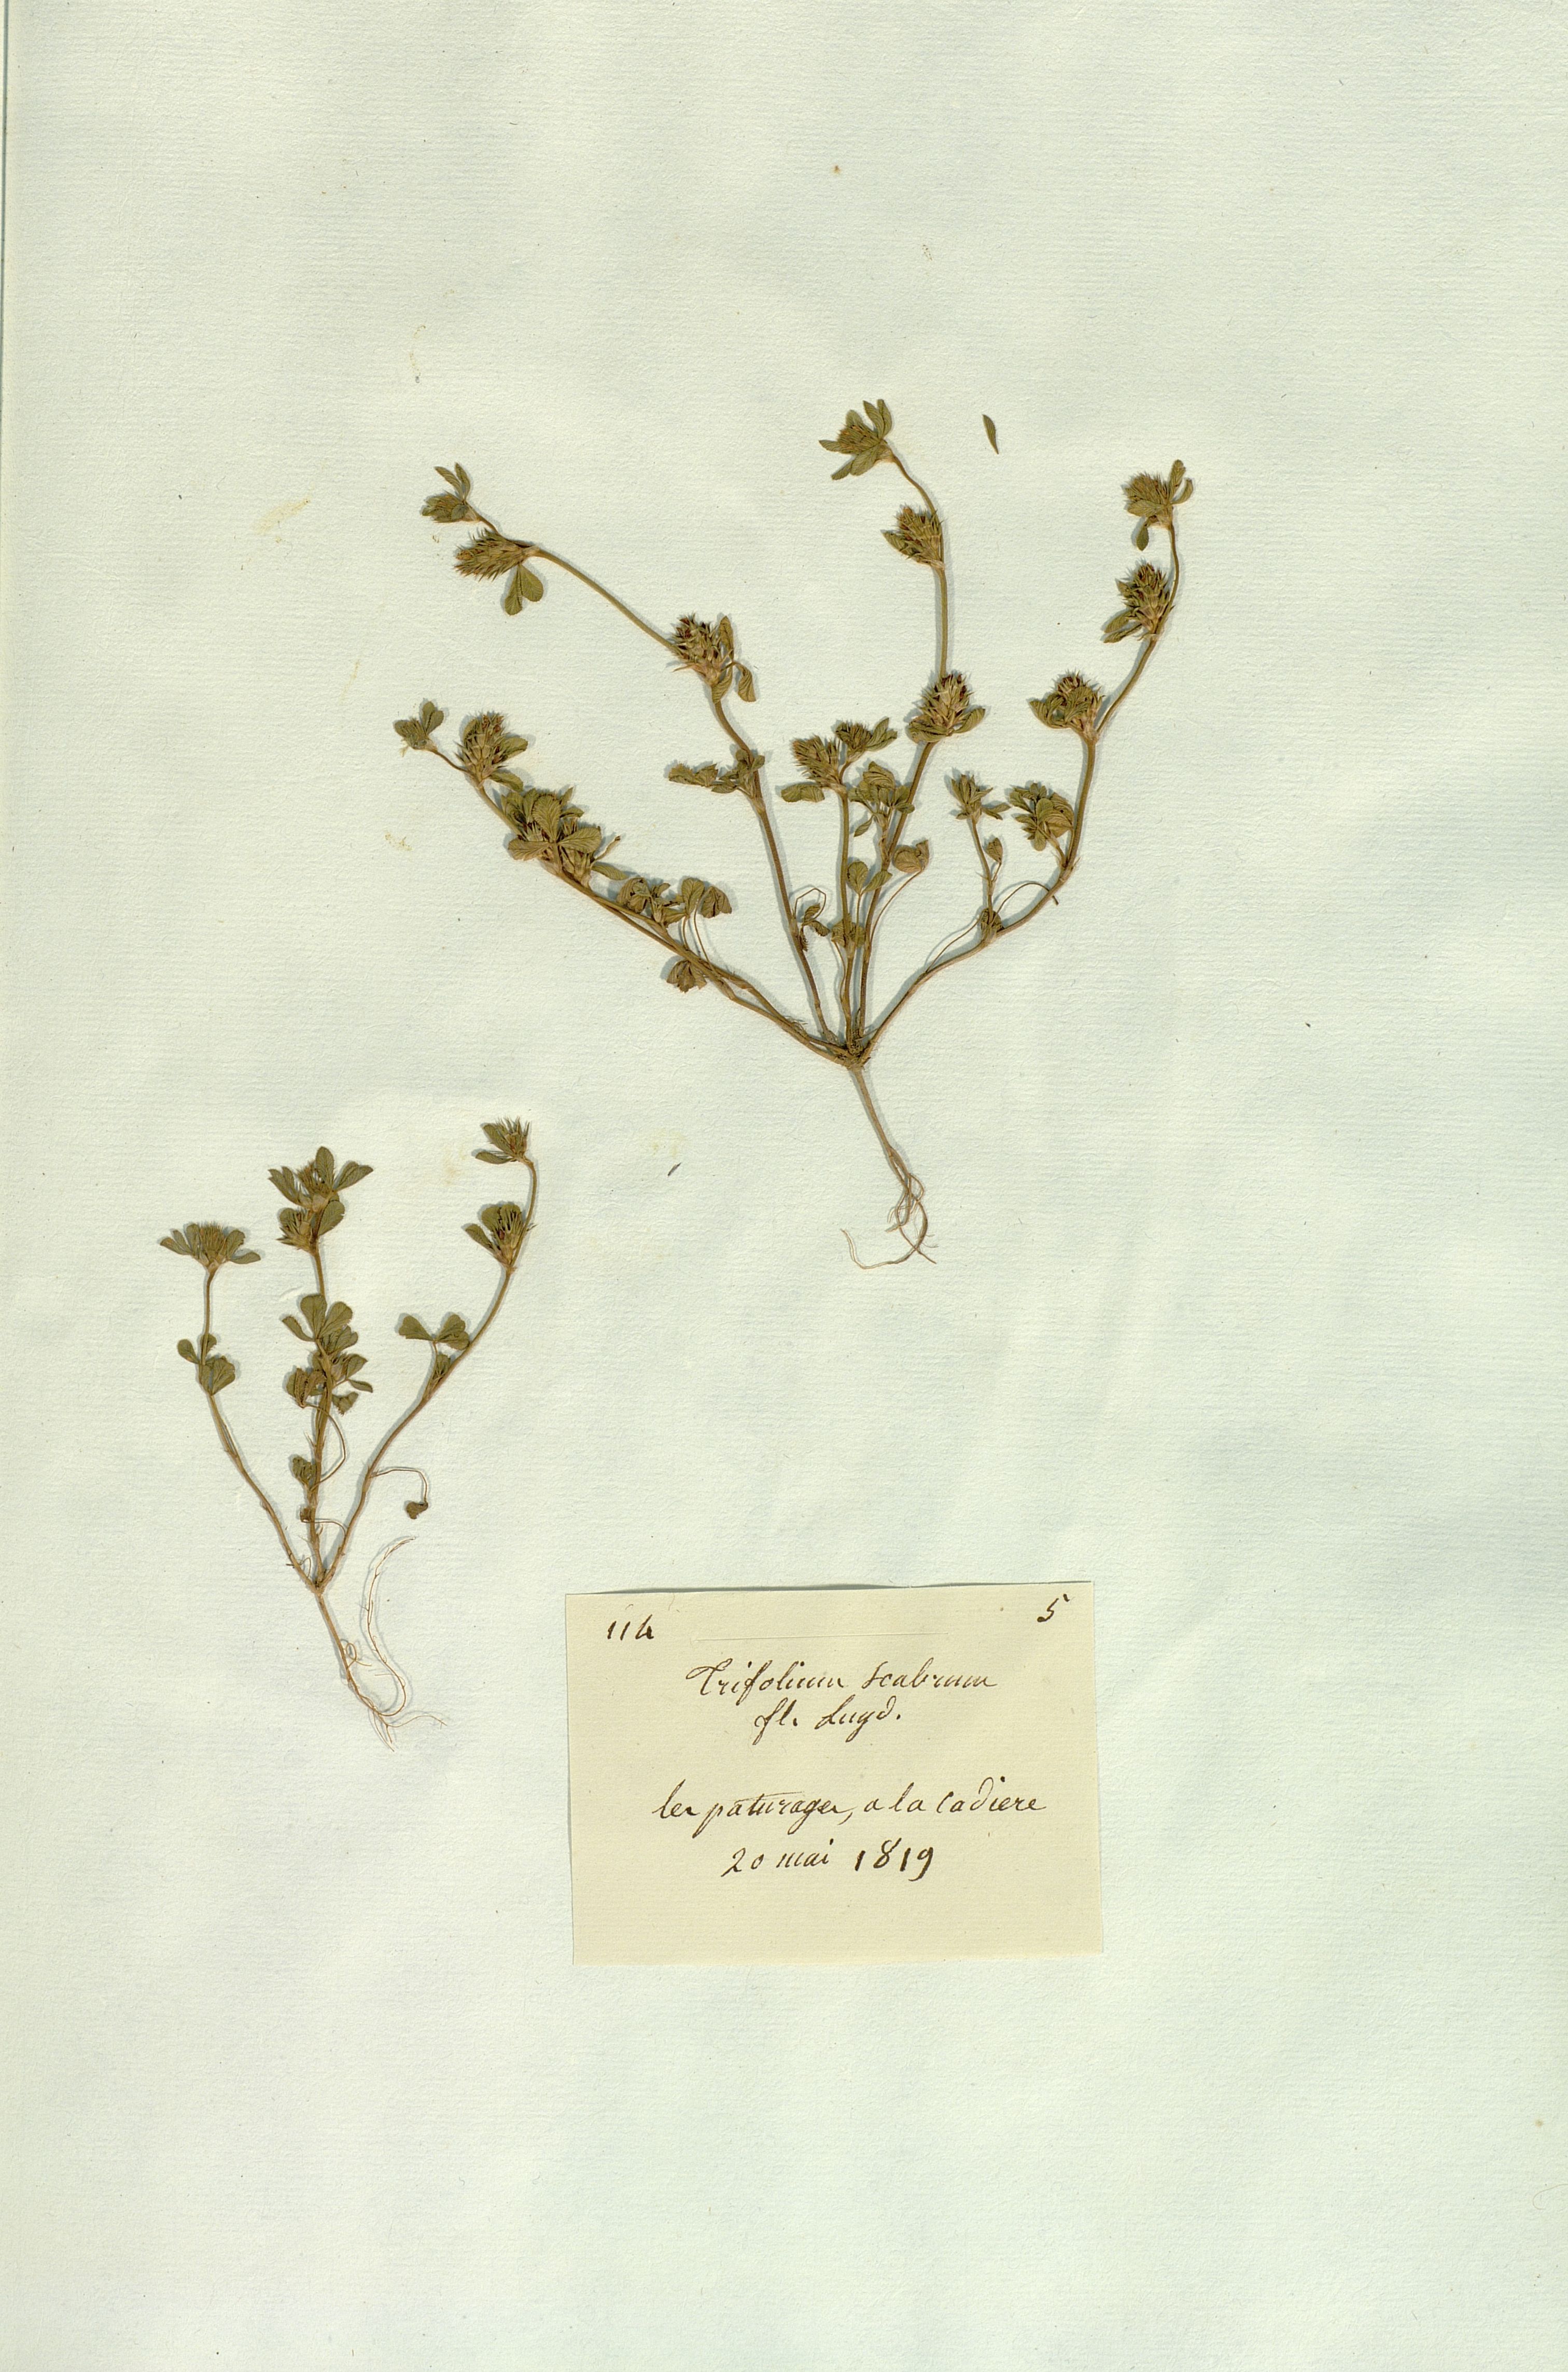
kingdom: Plantae
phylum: Tracheophyta
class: Magnoliopsida
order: Fabales
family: Fabaceae
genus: Trifolium
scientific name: Trifolium scabrum
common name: Rough clover
